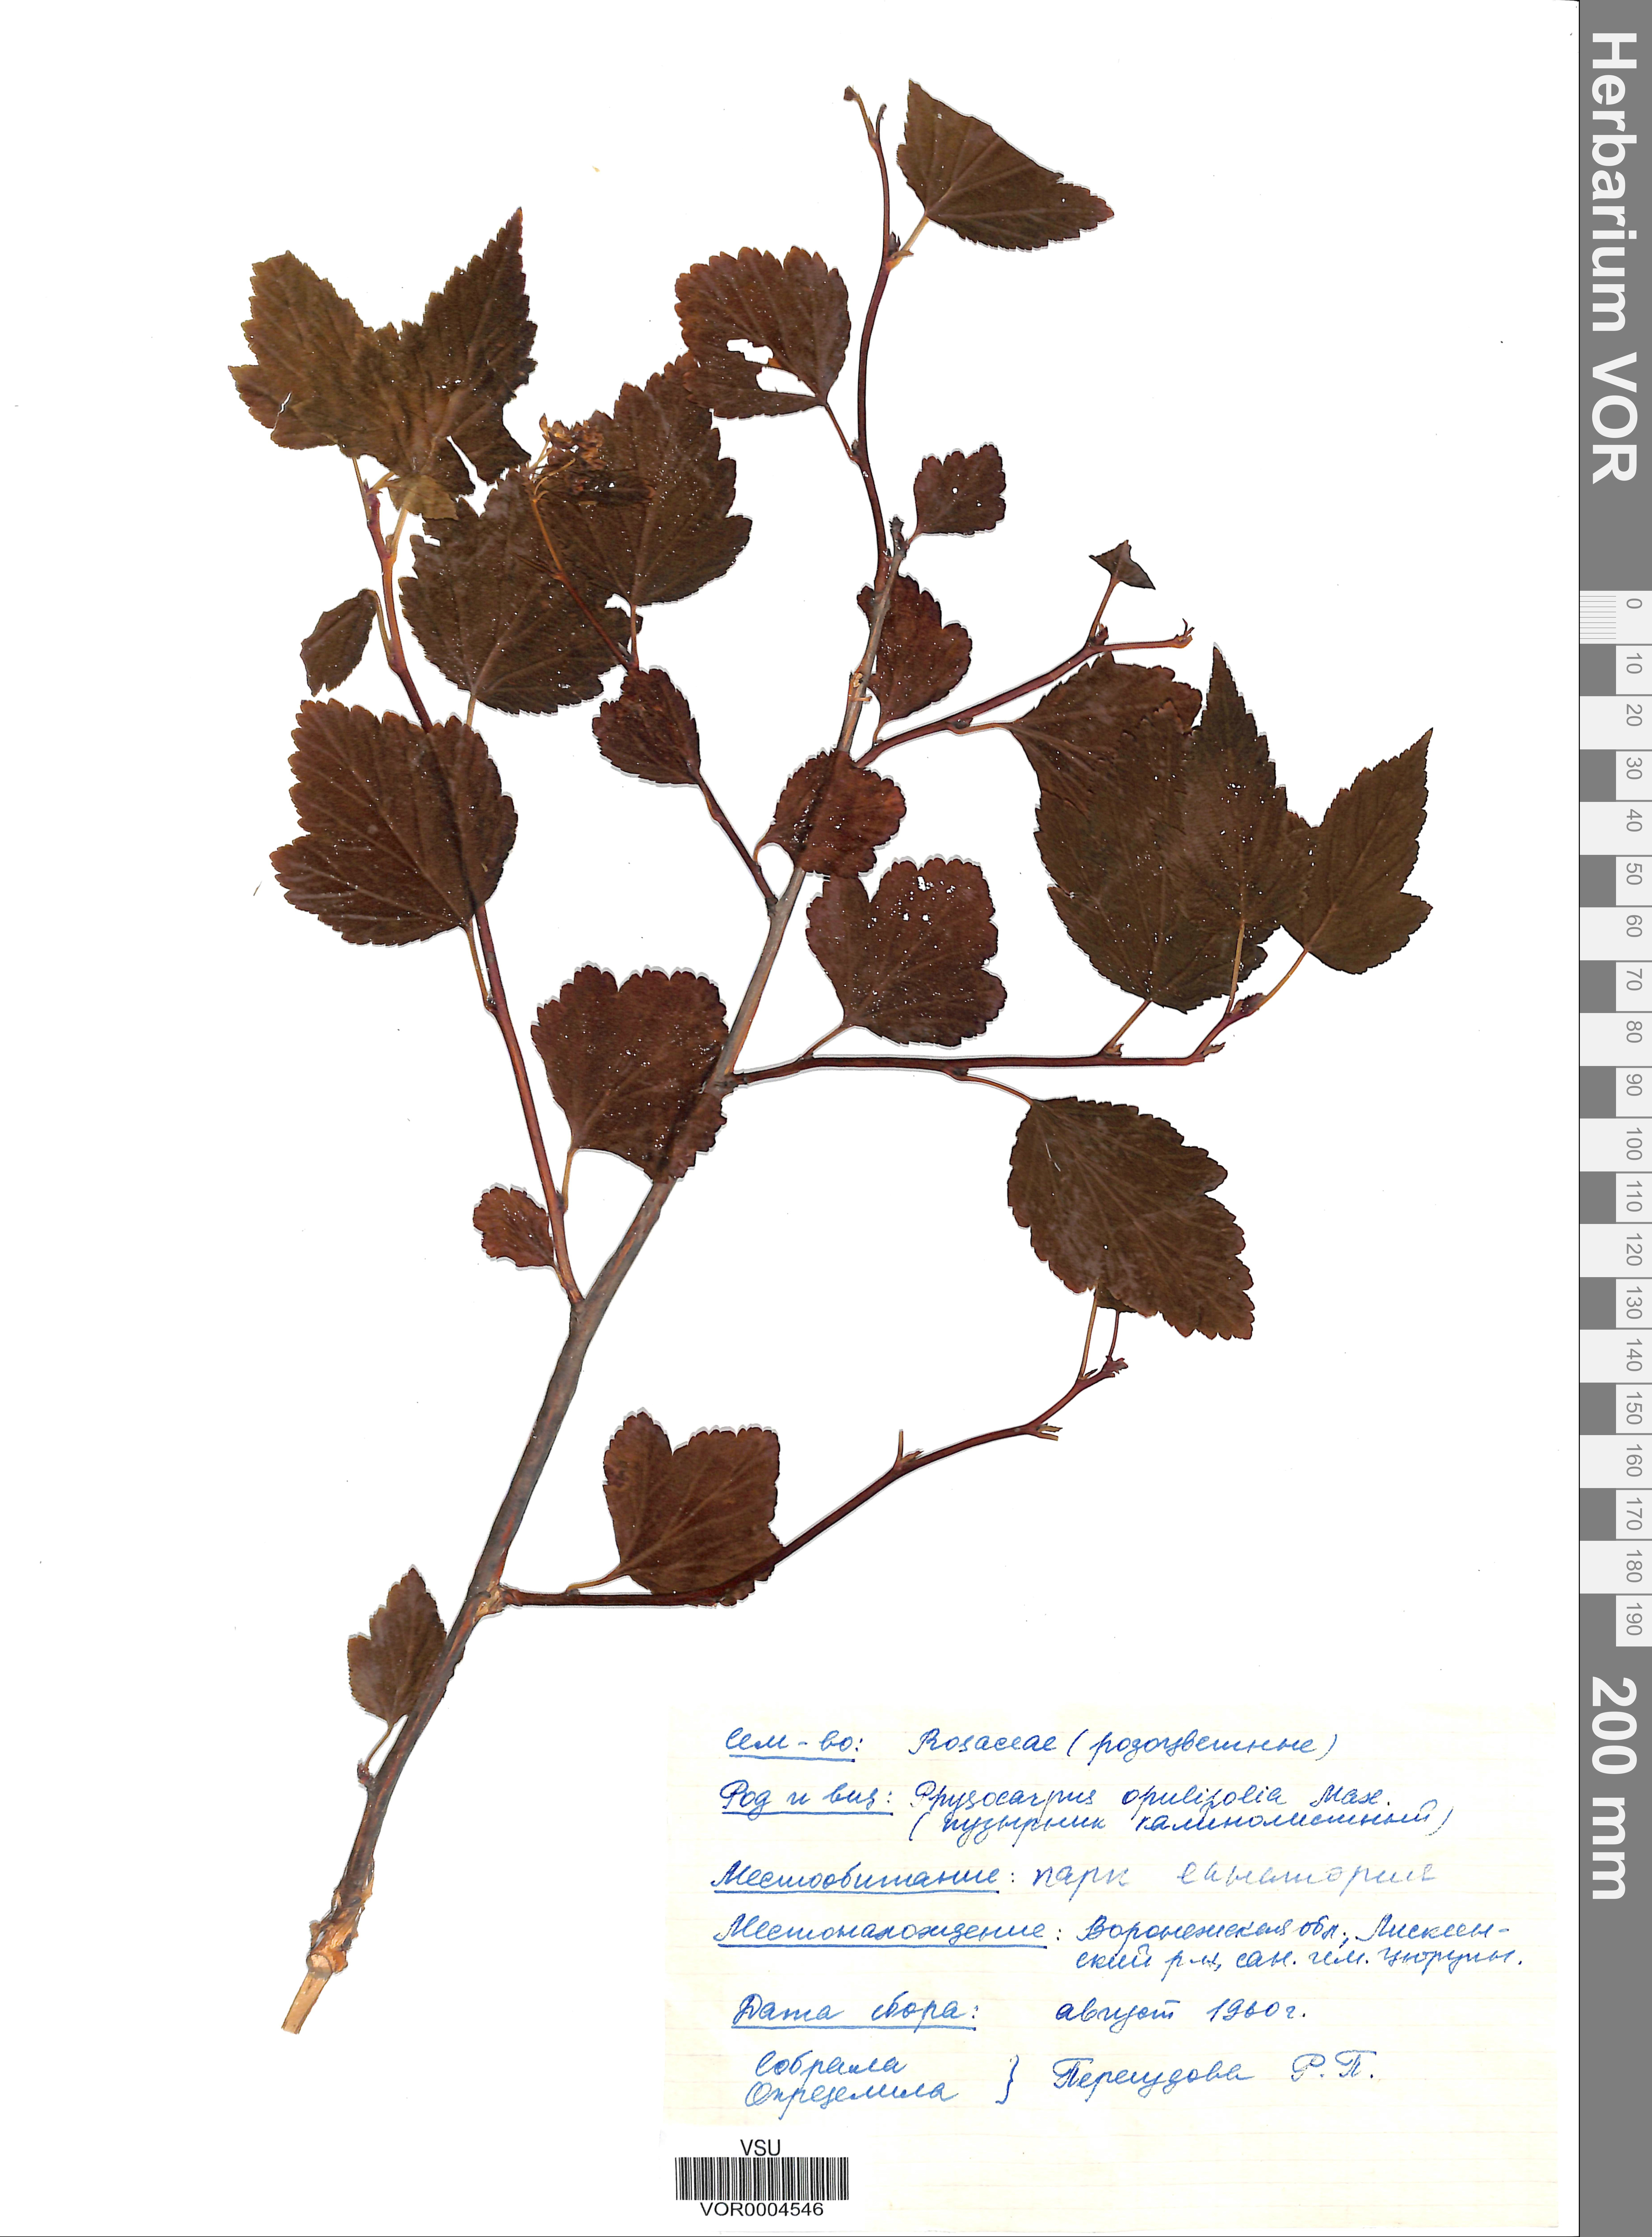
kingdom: Plantae
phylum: Tracheophyta
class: Magnoliopsida
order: Rosales
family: Rosaceae
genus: Physocarpus
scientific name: Physocarpus opulifolius
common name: Ninebark
